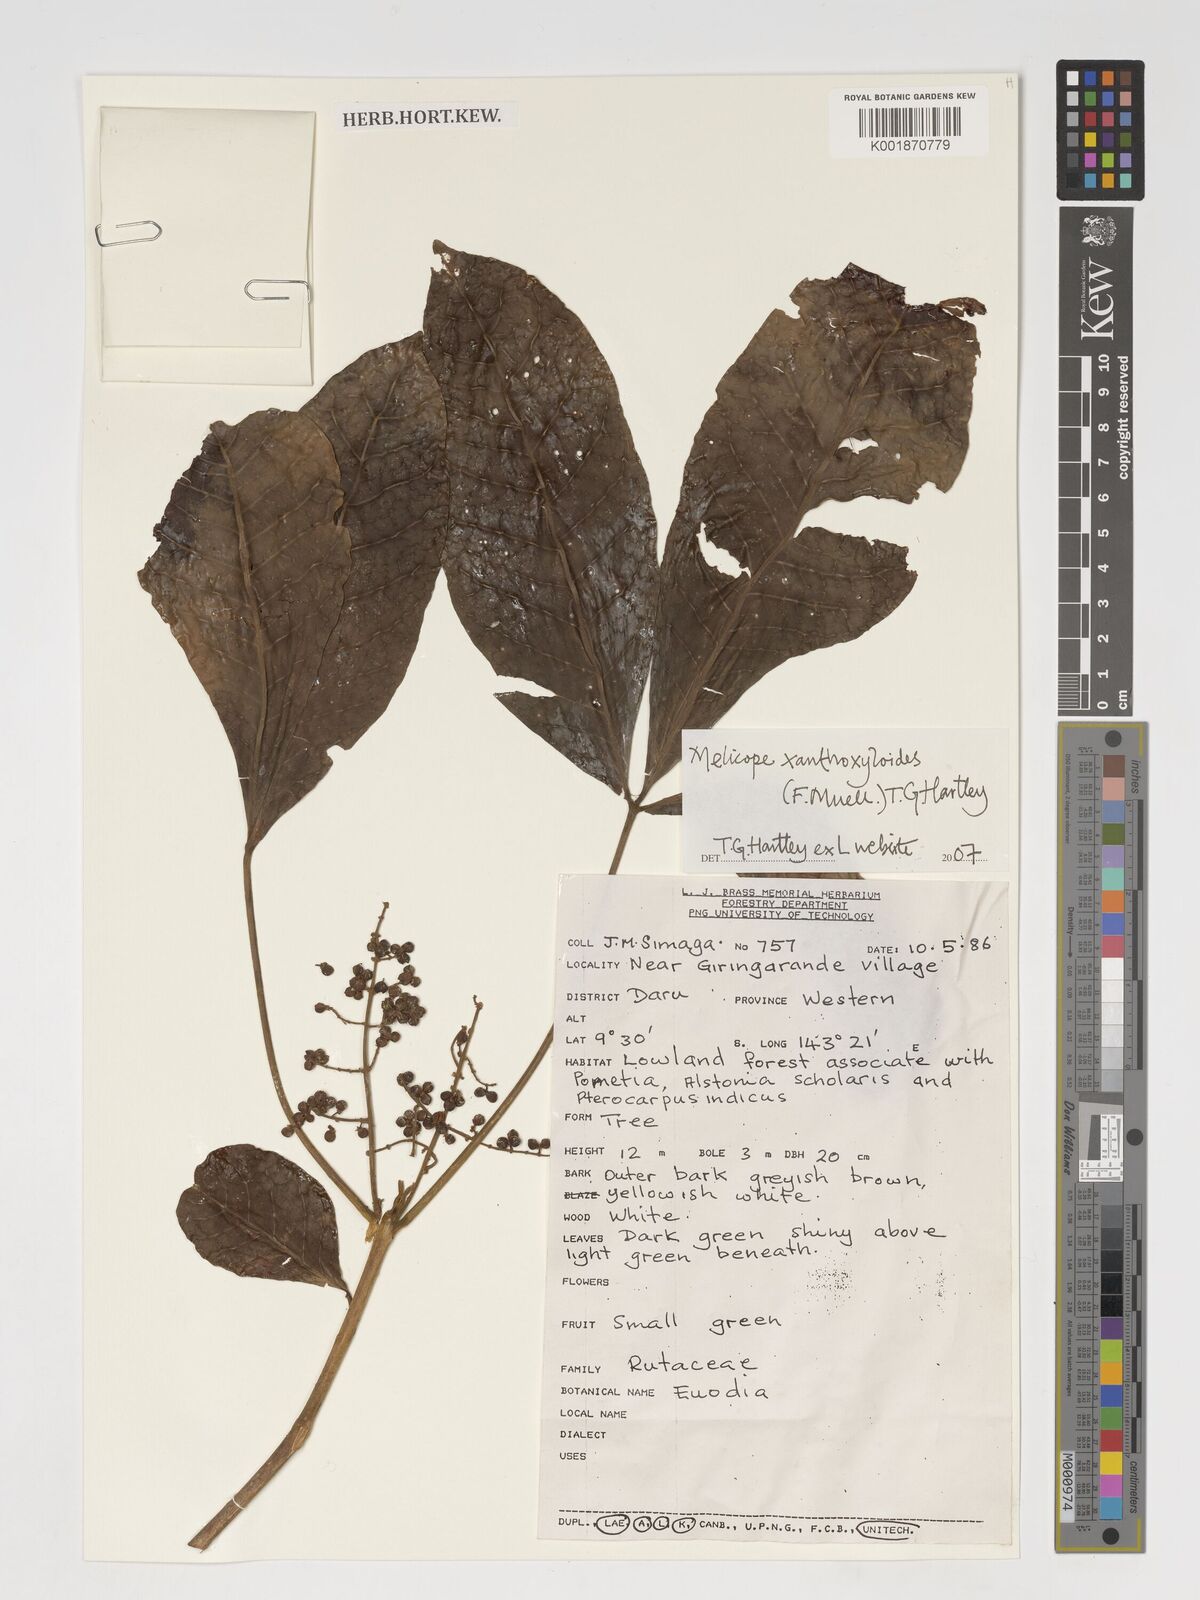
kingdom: Plantae
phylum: Tracheophyta
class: Magnoliopsida
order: Sapindales
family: Rutaceae
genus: Melicope
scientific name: Melicope xanthoxyloides
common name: Yellow evodia
